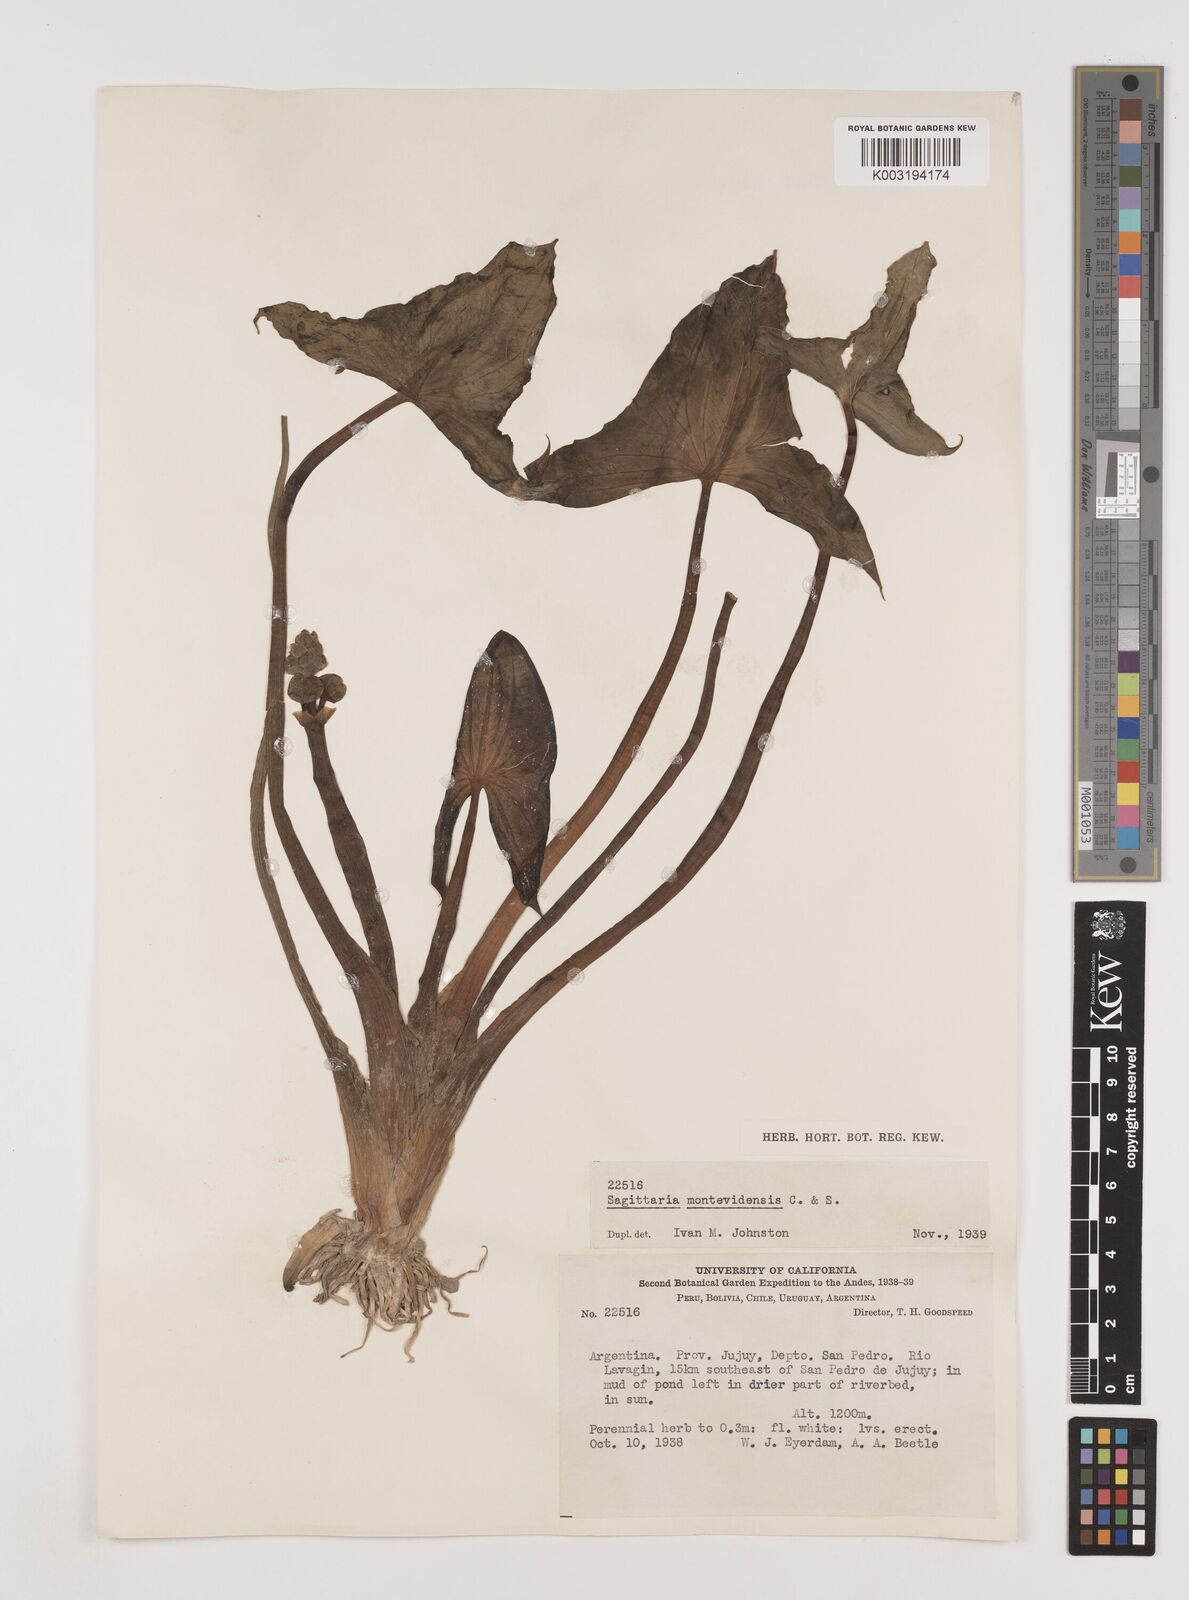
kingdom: Plantae
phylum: Tracheophyta
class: Liliopsida
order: Alismatales
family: Alismataceae
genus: Sagittaria
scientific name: Sagittaria montevidensis
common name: Giant arrowhead
